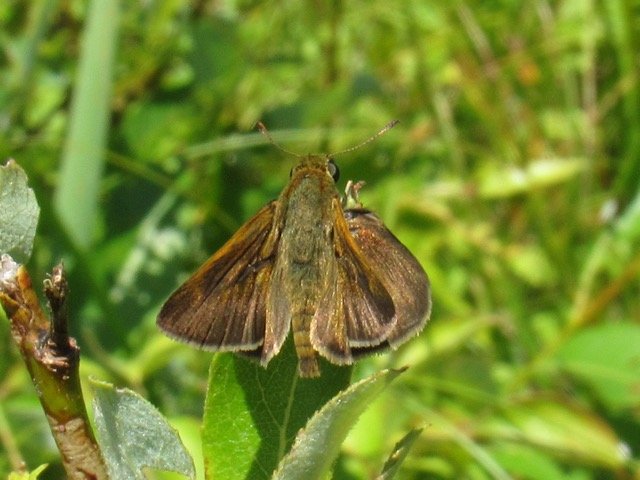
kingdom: Animalia
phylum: Arthropoda
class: Insecta
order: Lepidoptera
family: Hesperiidae
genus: Polites
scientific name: Polites egeremet
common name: Northern Broken-Dash
